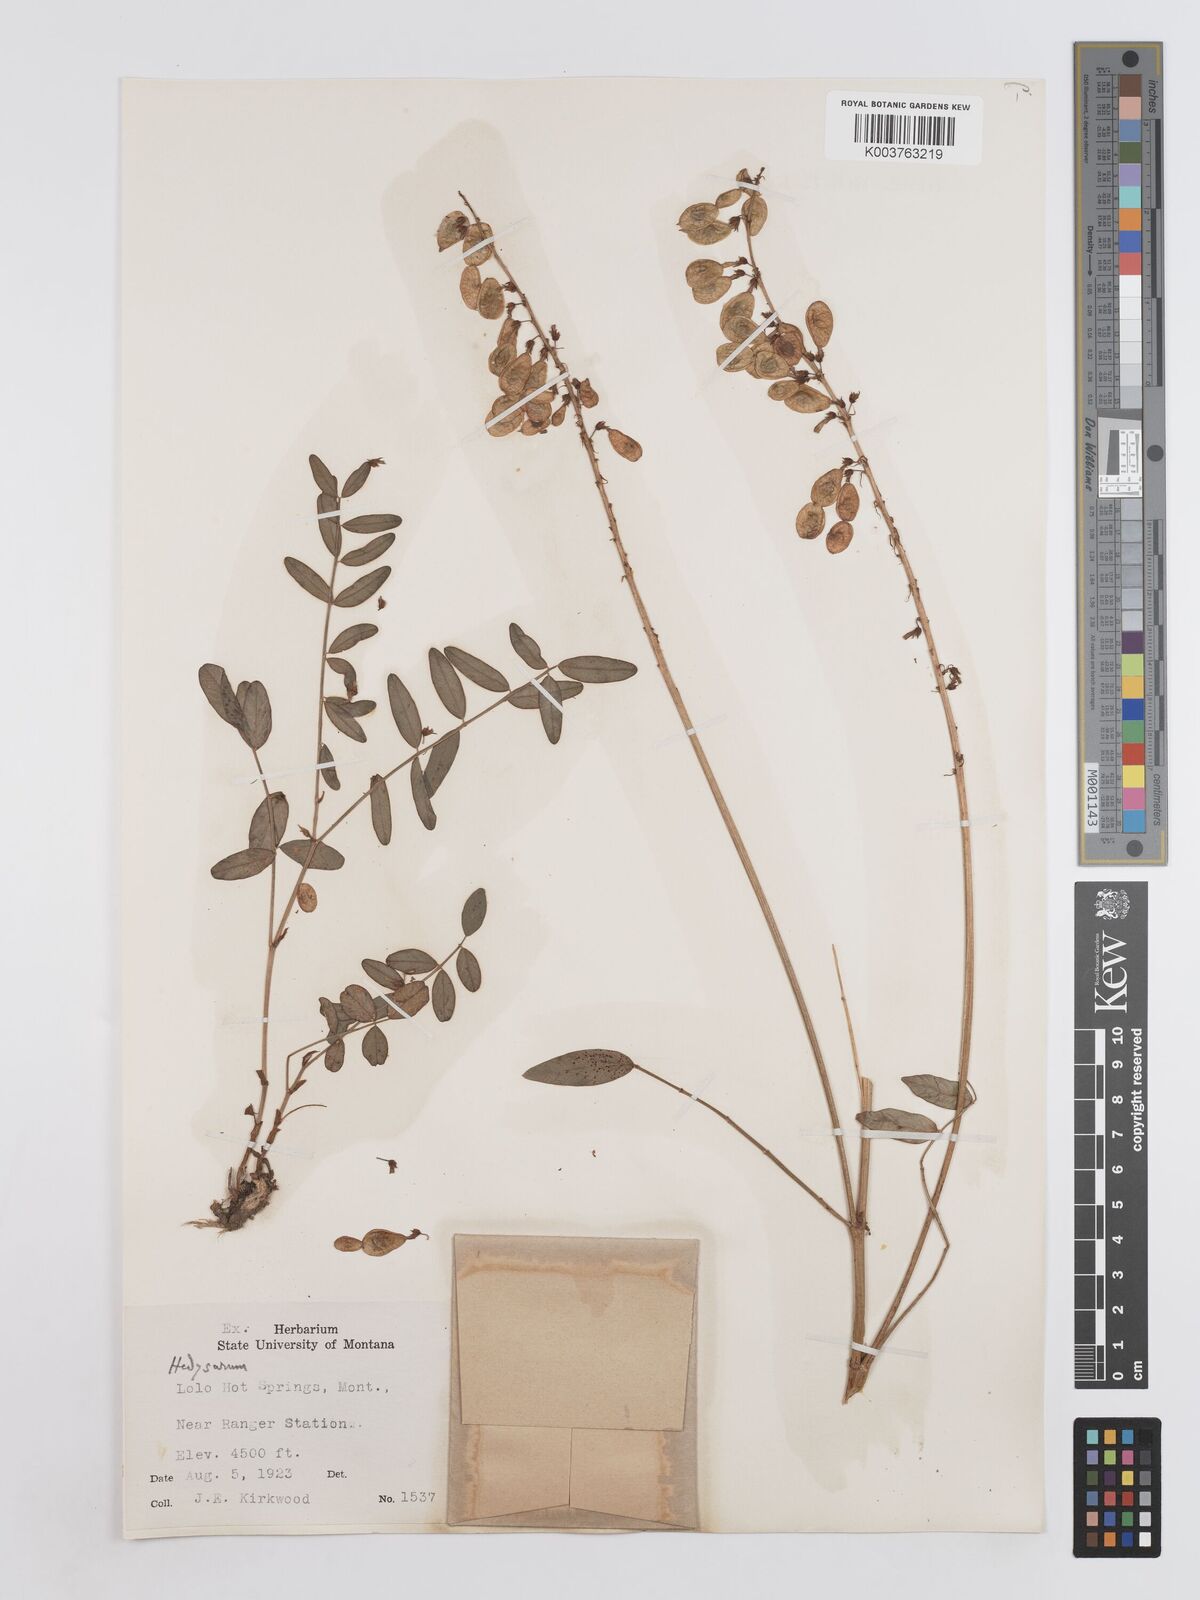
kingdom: Plantae
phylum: Tracheophyta
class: Magnoliopsida
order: Fabales
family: Fabaceae
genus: Hedysarum
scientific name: Hedysarum boreale
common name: Northern sweet-vetch
